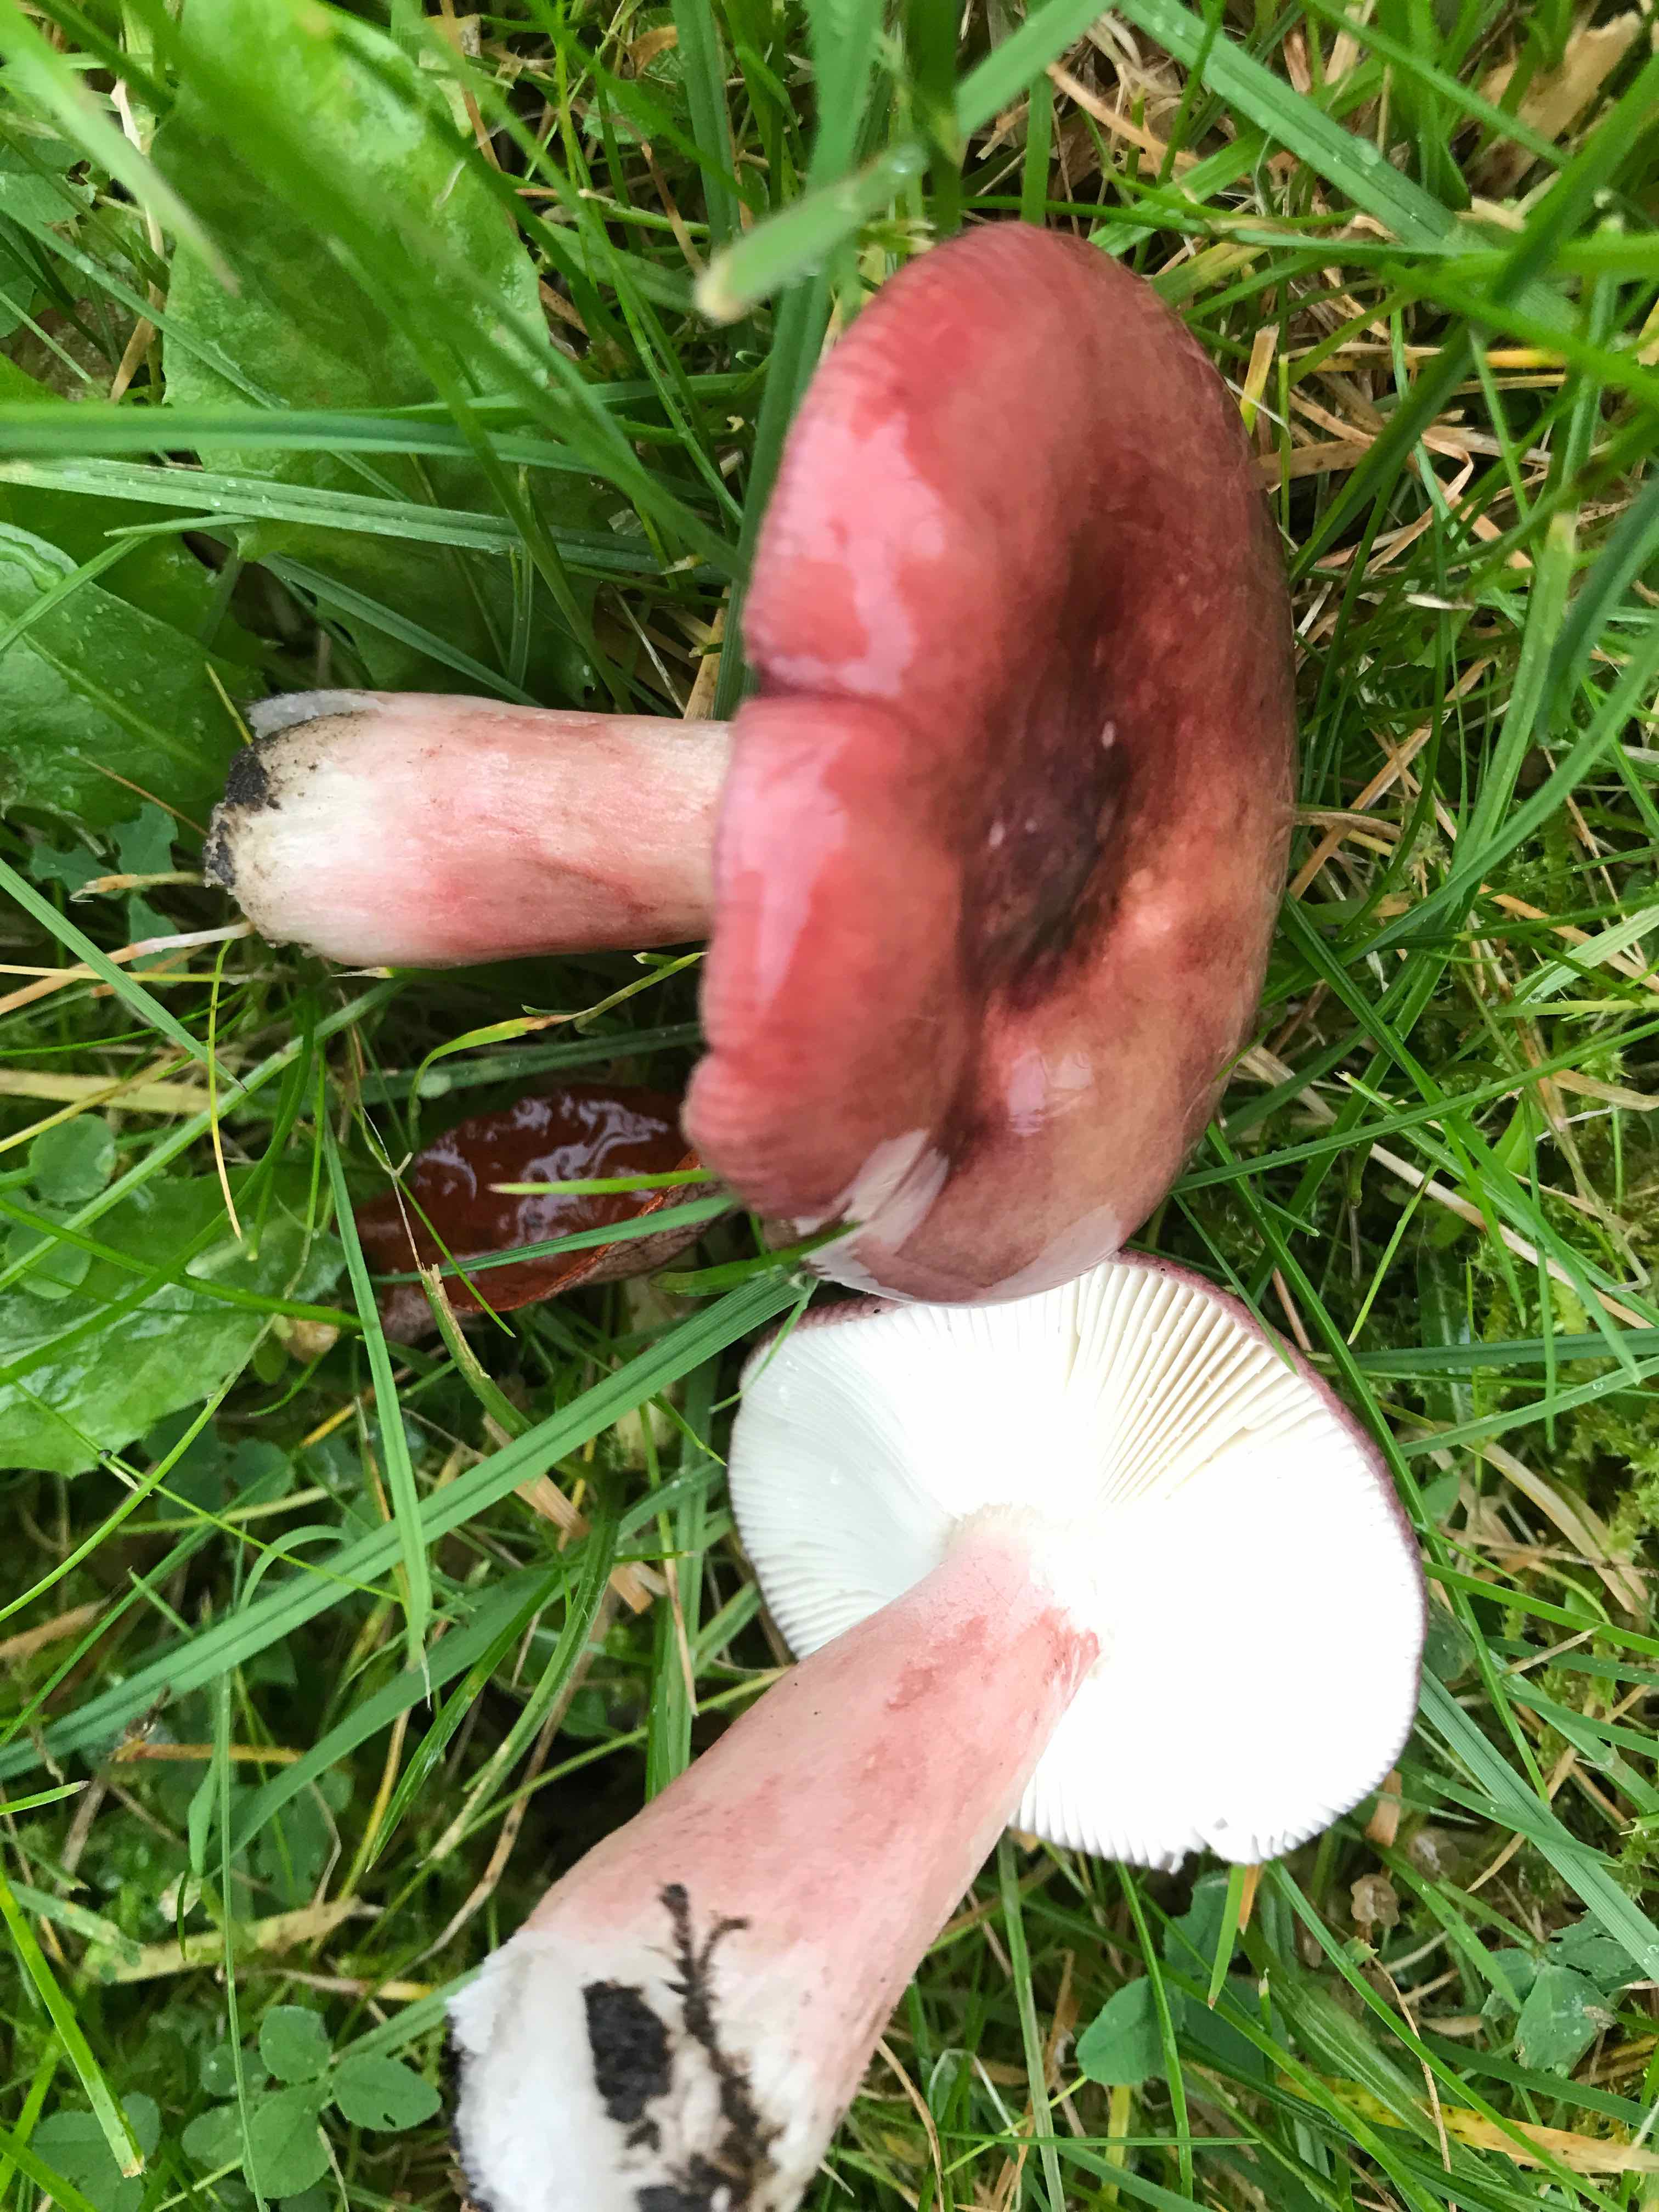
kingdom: Fungi
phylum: Basidiomycota
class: Agaricomycetes
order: Russulales
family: Russulaceae
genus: Russula
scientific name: Russula queletii
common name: Quélets skørhat
